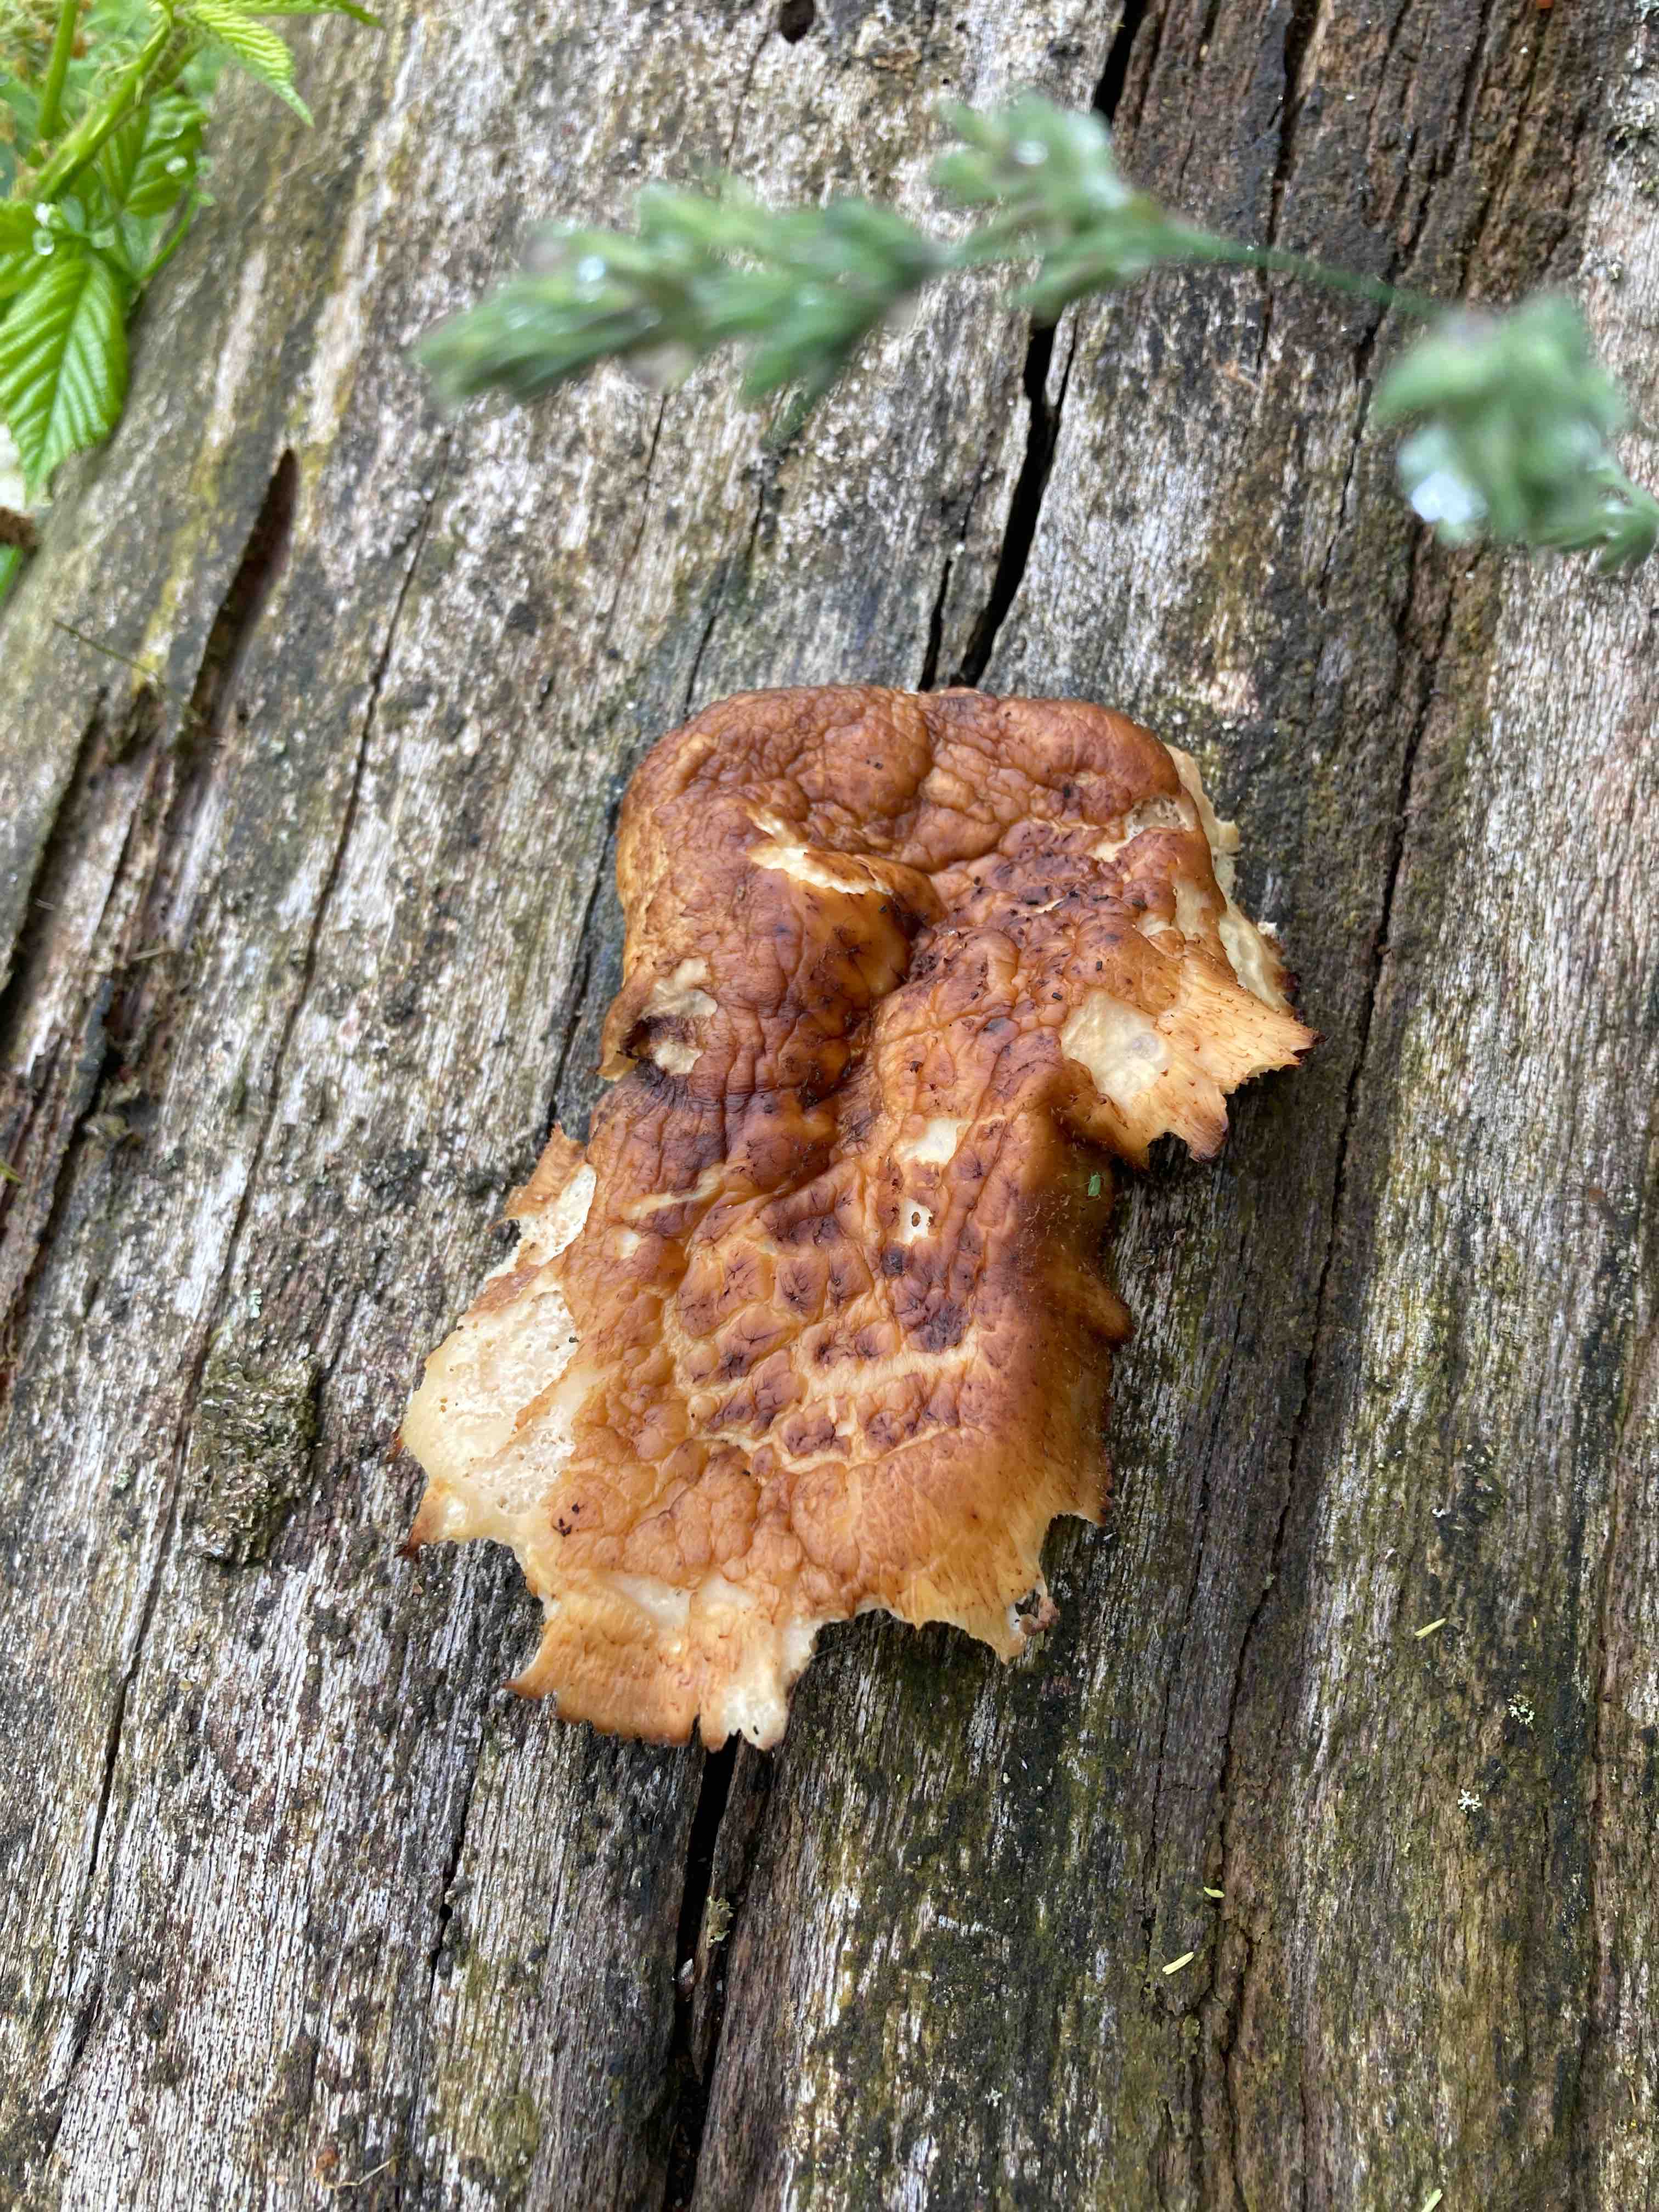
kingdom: Fungi
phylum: Basidiomycota
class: Agaricomycetes
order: Polyporales
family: Polyporaceae
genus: Polyporus
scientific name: Polyporus tuberaster
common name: knoldet stilkporesvamp
